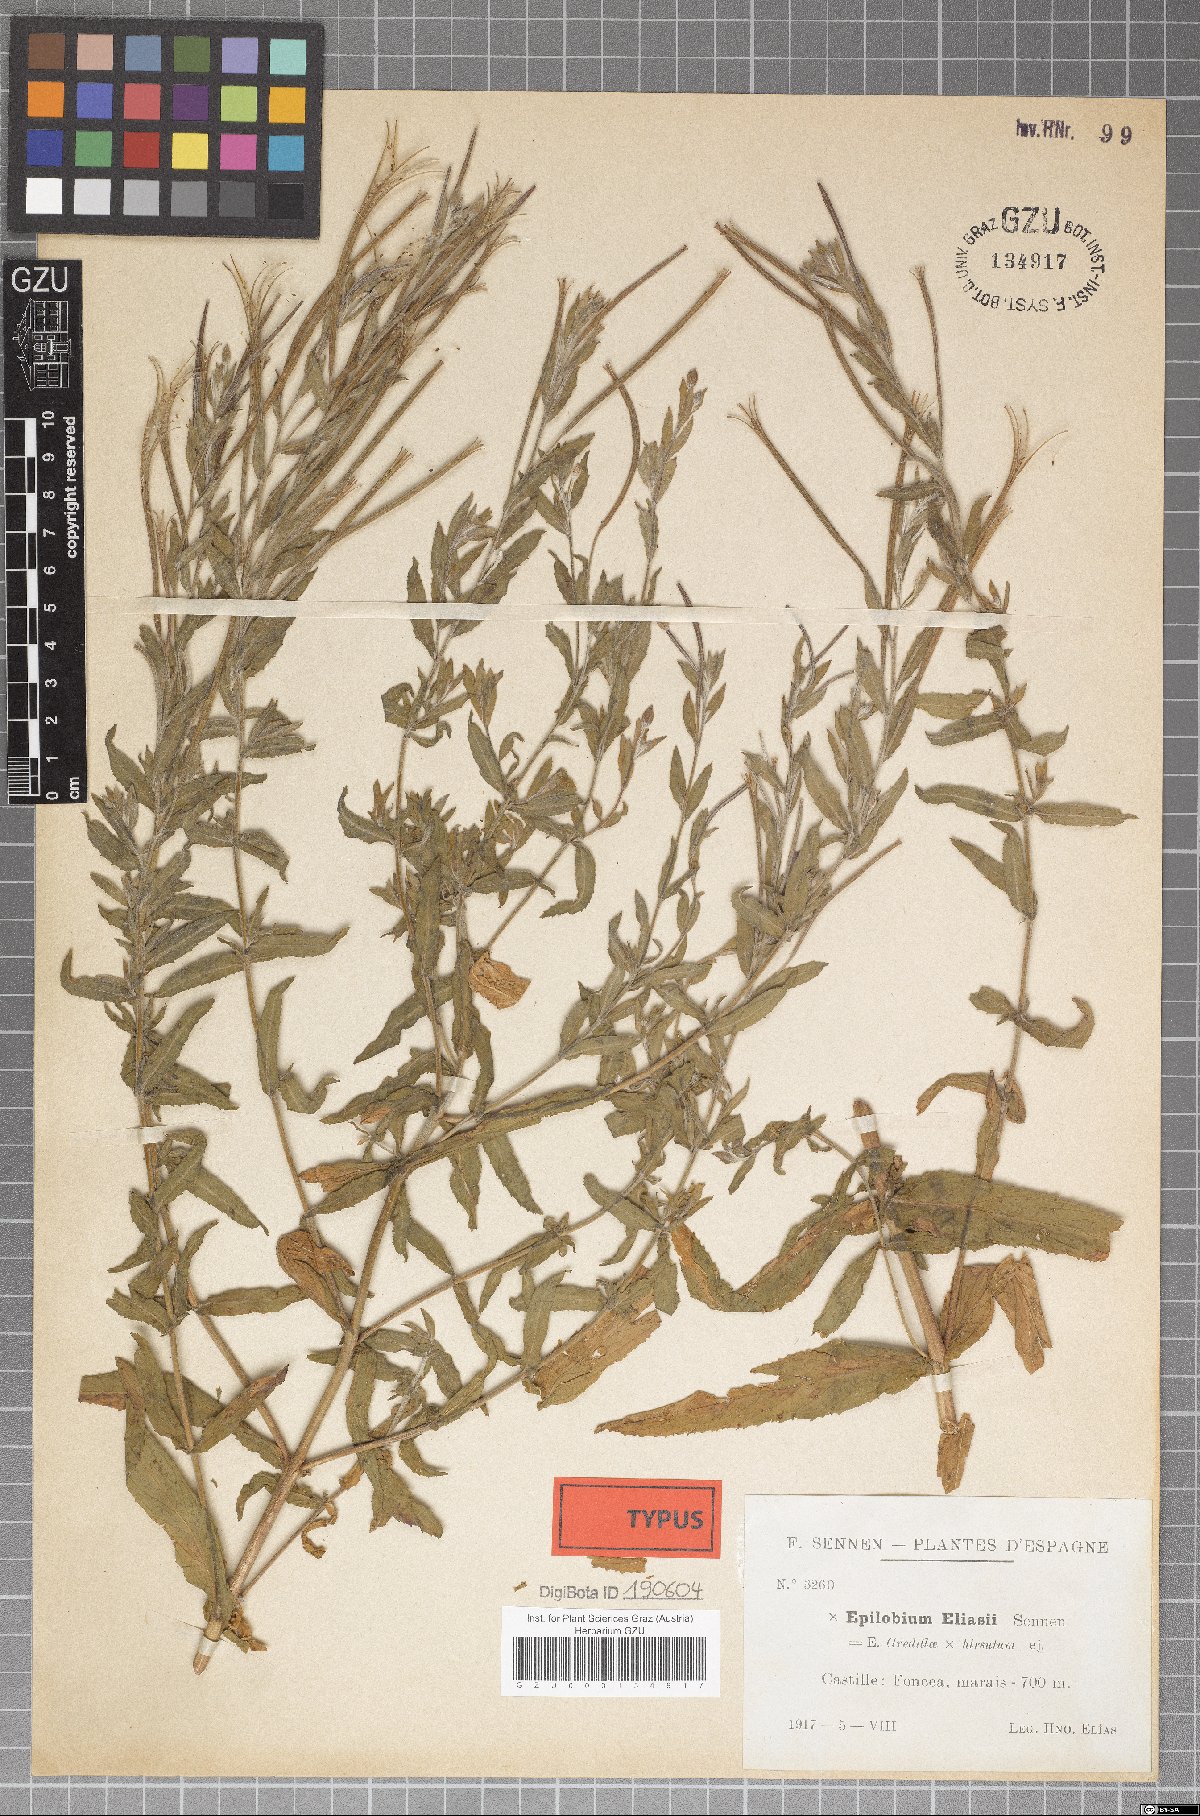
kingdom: Plantae
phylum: Tracheophyta
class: Magnoliopsida
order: Myrtales
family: Onagraceae
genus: Epilobium
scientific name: Epilobium eliasii
